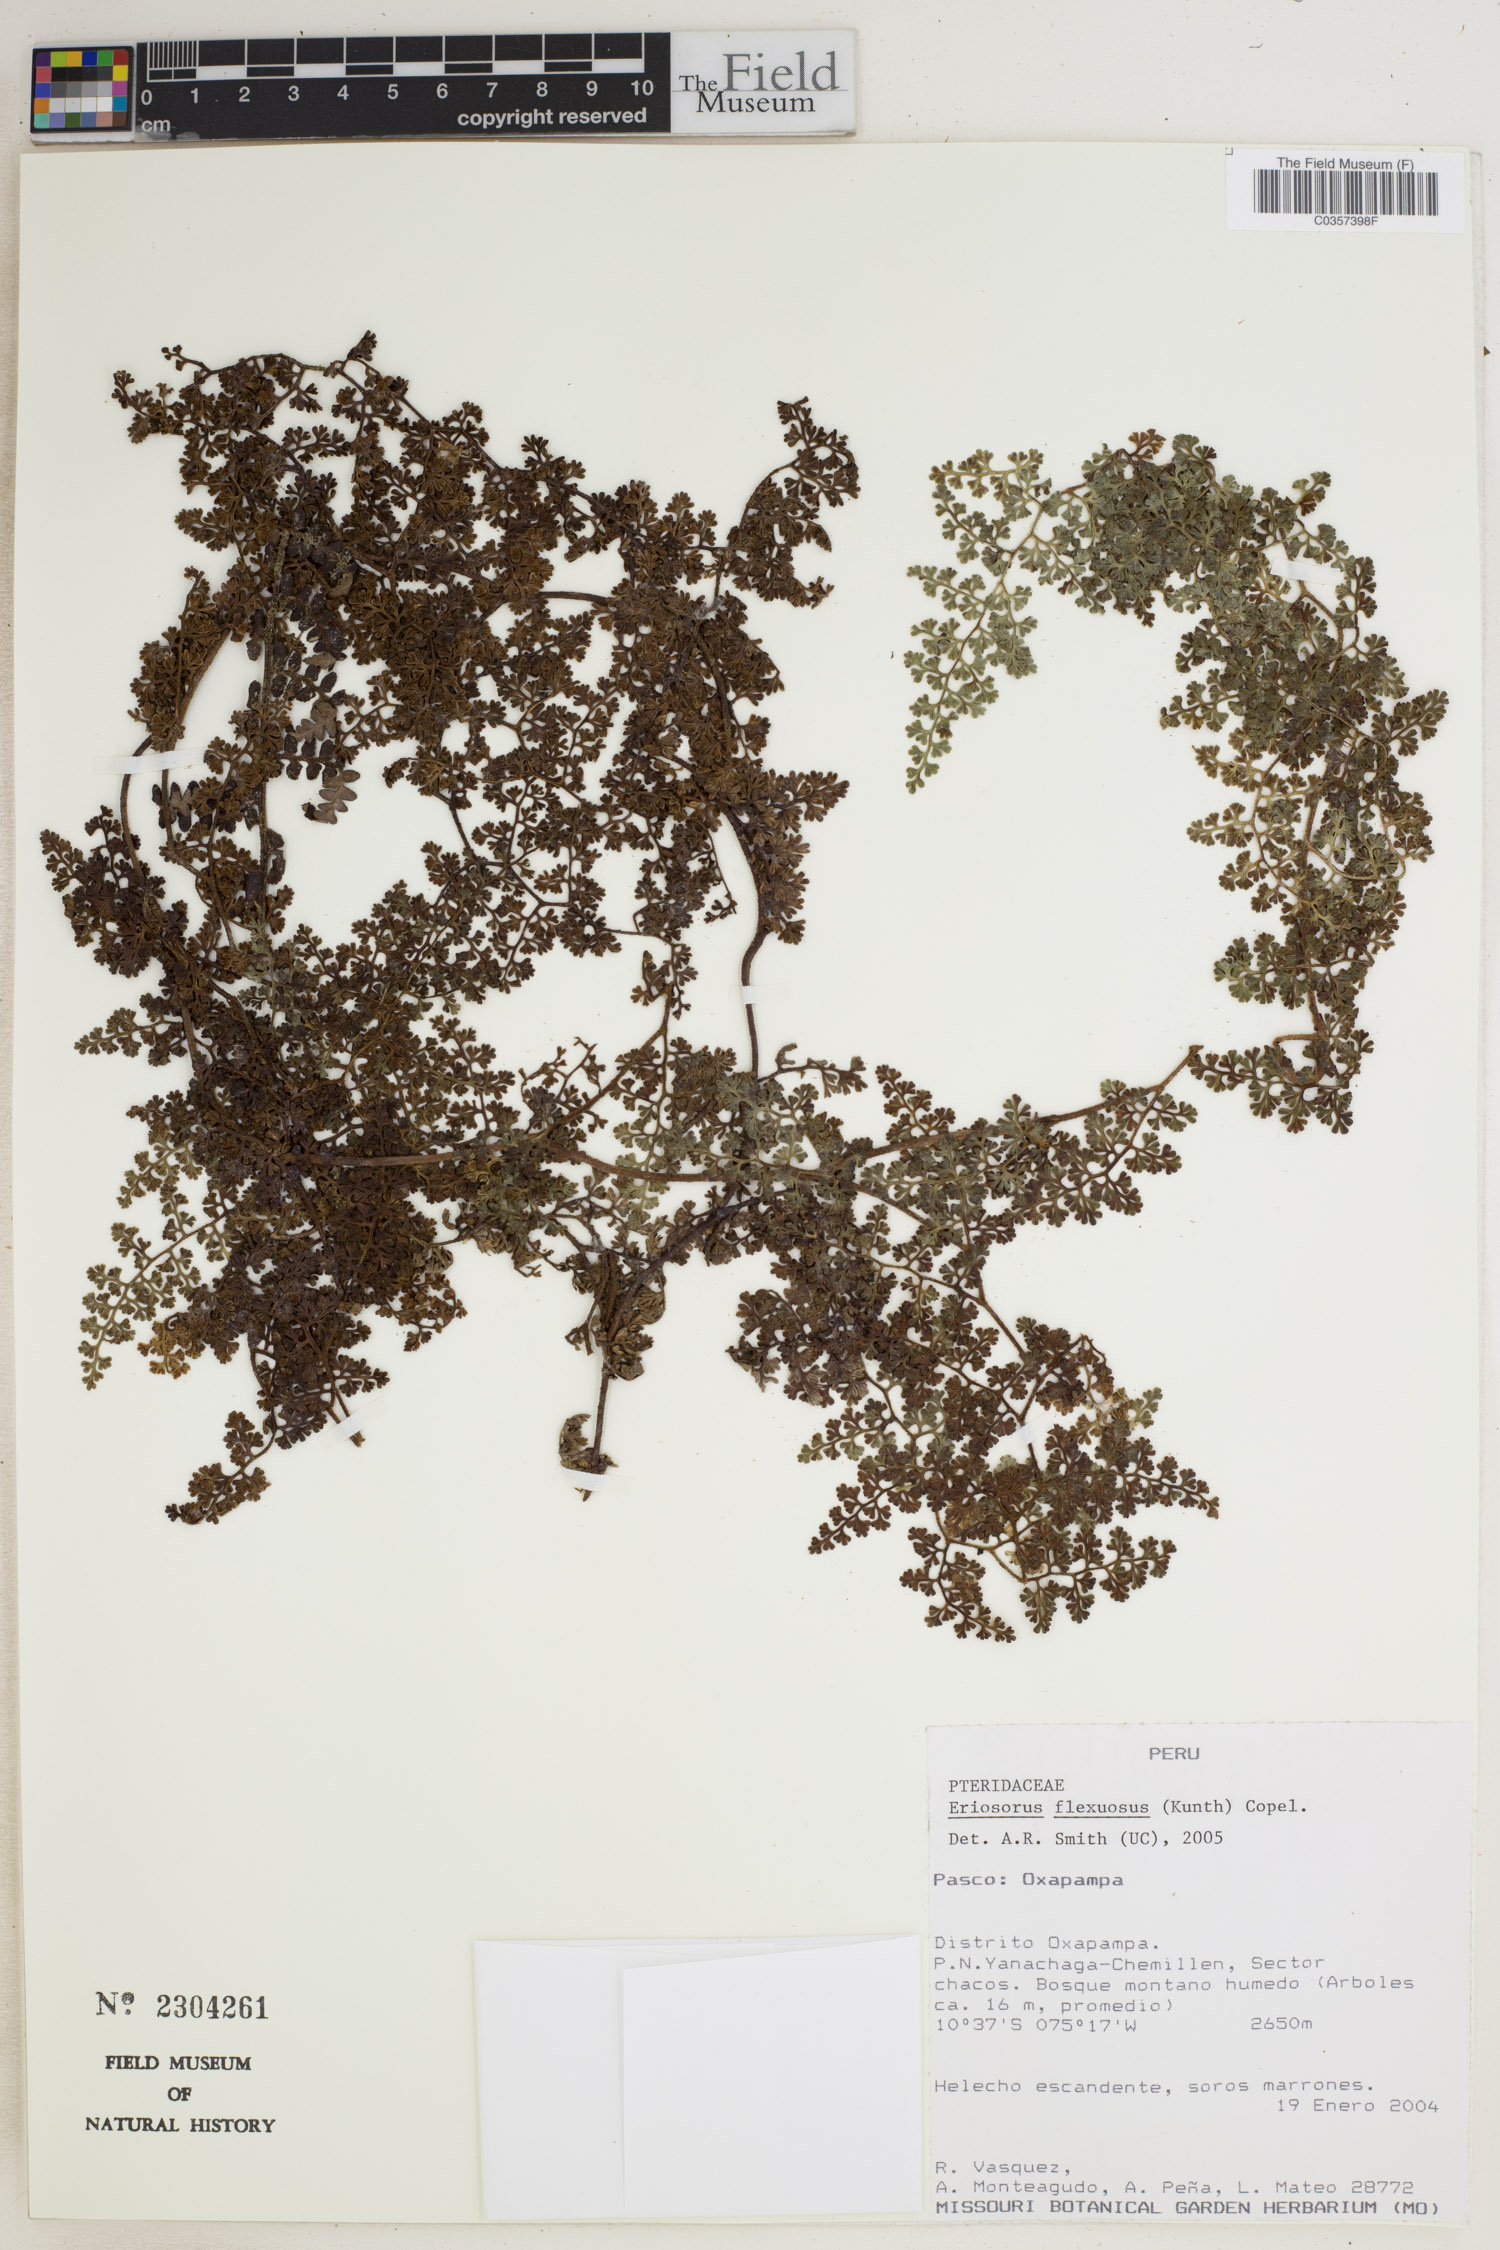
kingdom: Plantae
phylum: Tracheophyta
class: Polypodiopsida
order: Polypodiales
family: Pteridaceae
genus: Jamesonia
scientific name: Jamesonia flexuosa
